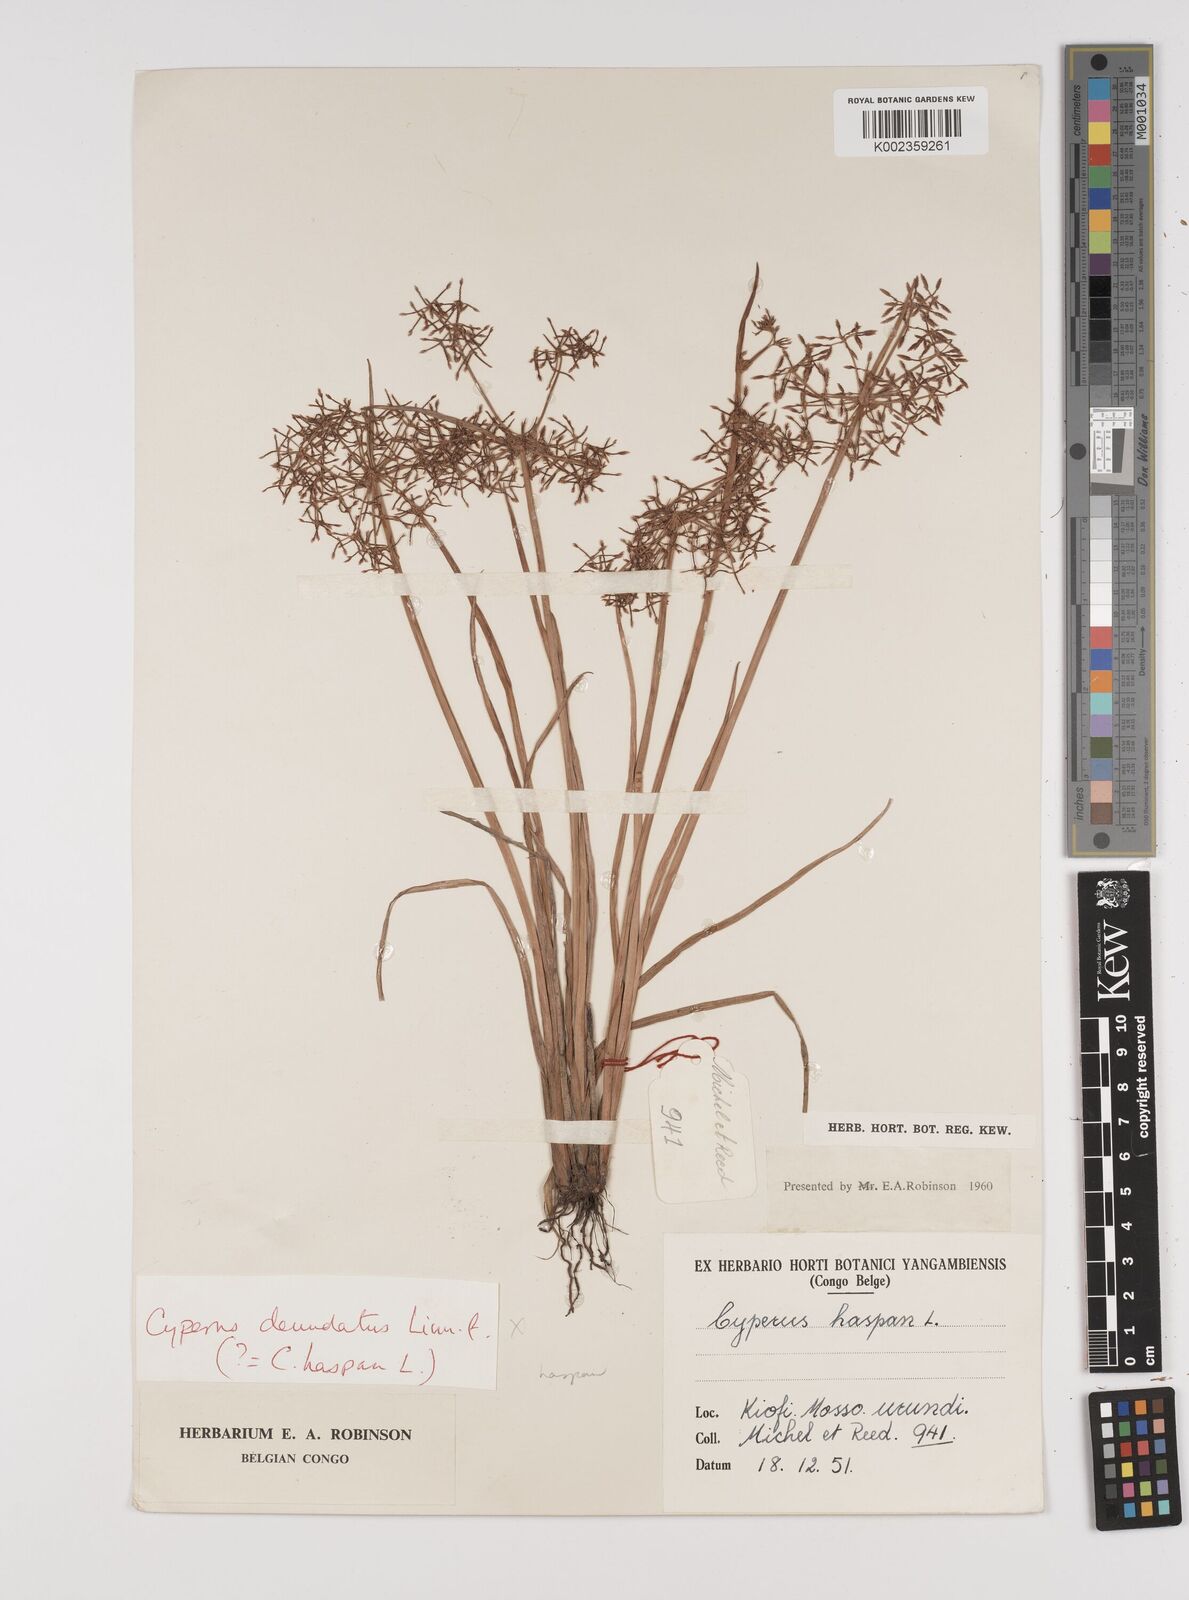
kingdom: Plantae
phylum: Tracheophyta
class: Liliopsida
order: Poales
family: Cyperaceae
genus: Cyperus
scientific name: Cyperus haspan
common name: Haspan flatsedge
